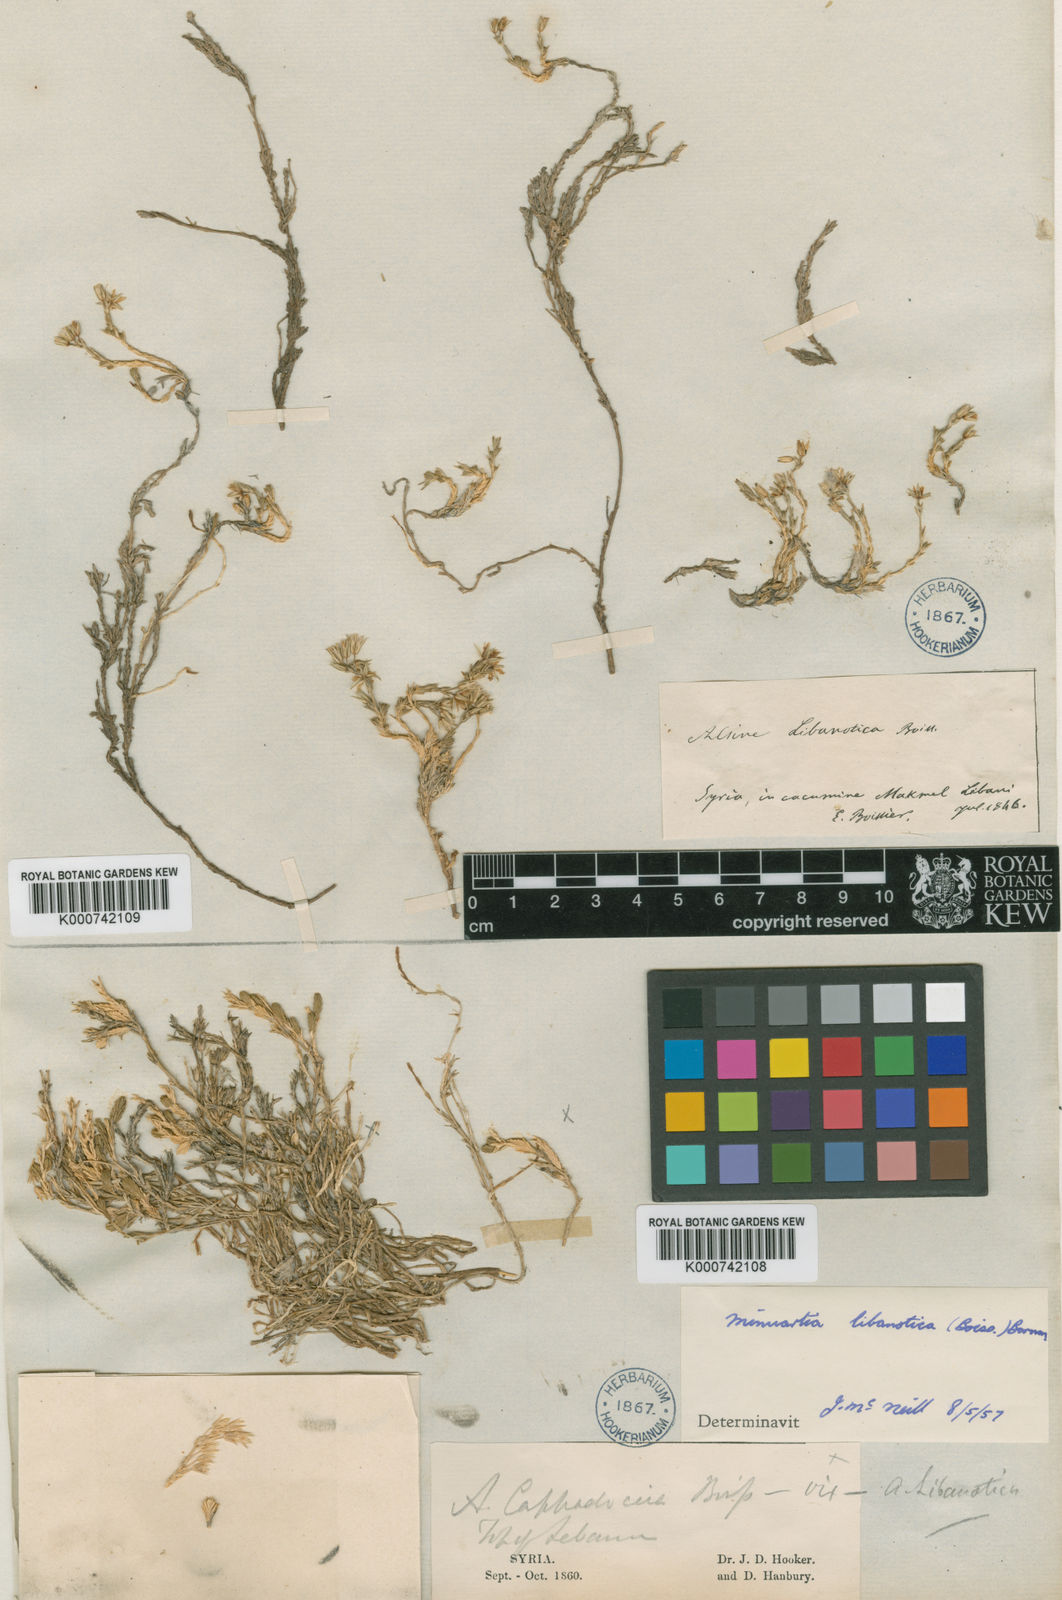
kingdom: Plantae
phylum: Tracheophyta
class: Magnoliopsida
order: Caryophyllales
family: Caryophyllaceae
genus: Minuartia
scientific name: Minuartia libanotica
